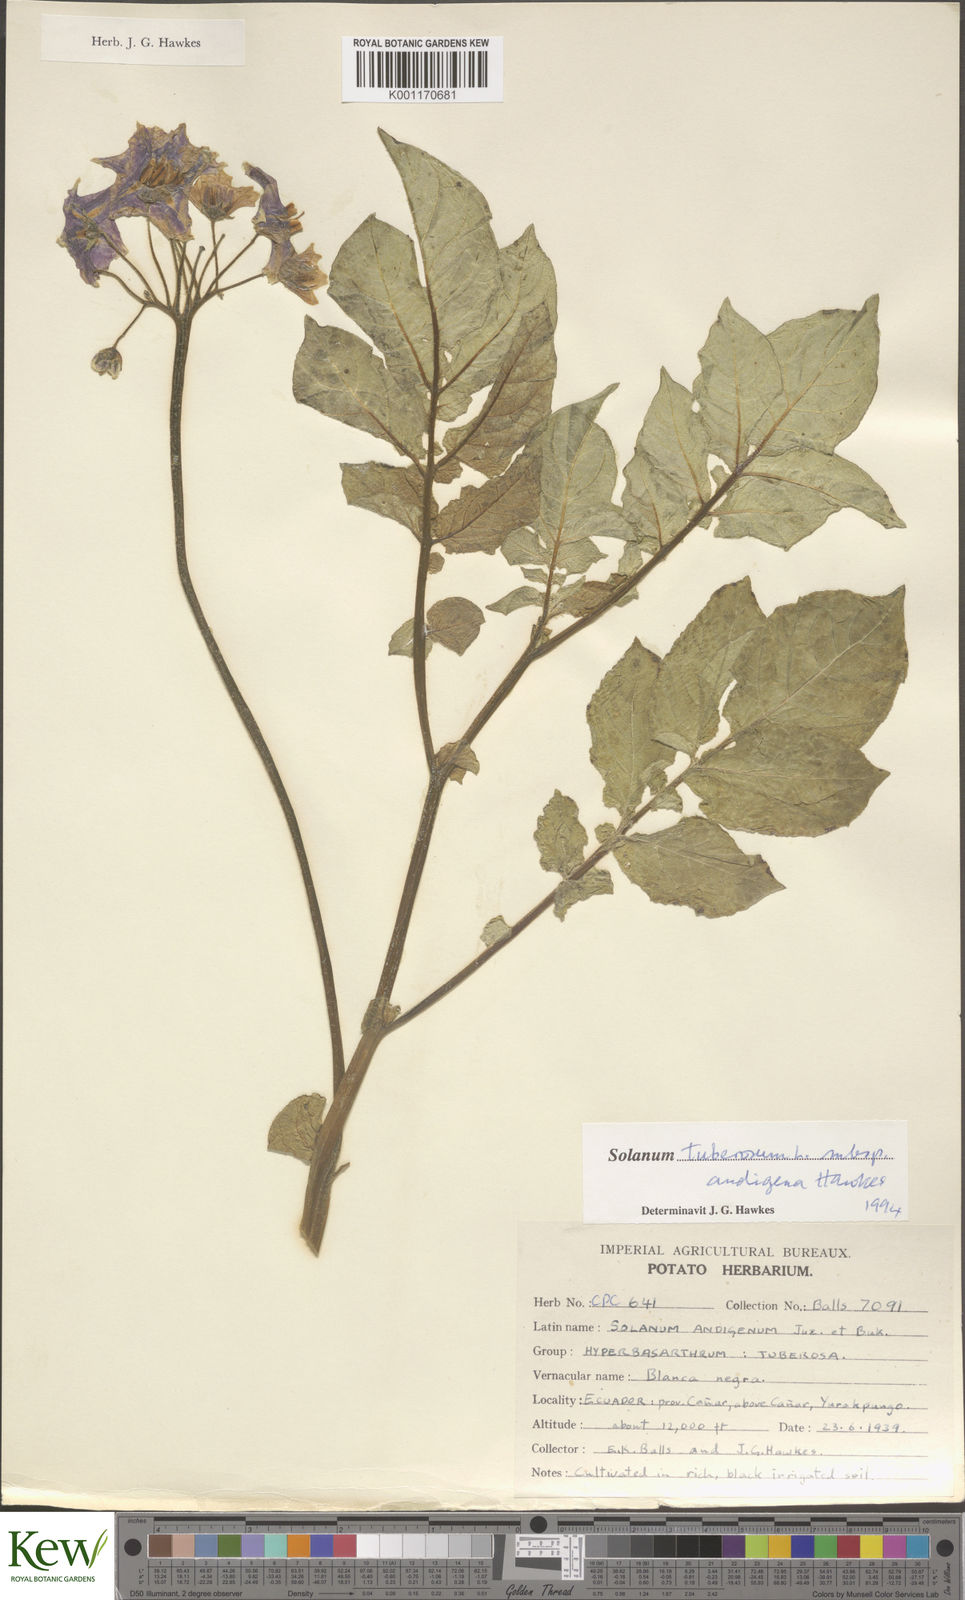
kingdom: Plantae
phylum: Tracheophyta
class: Magnoliopsida
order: Solanales
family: Solanaceae
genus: Solanum
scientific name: Solanum tuberosum
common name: Potato
